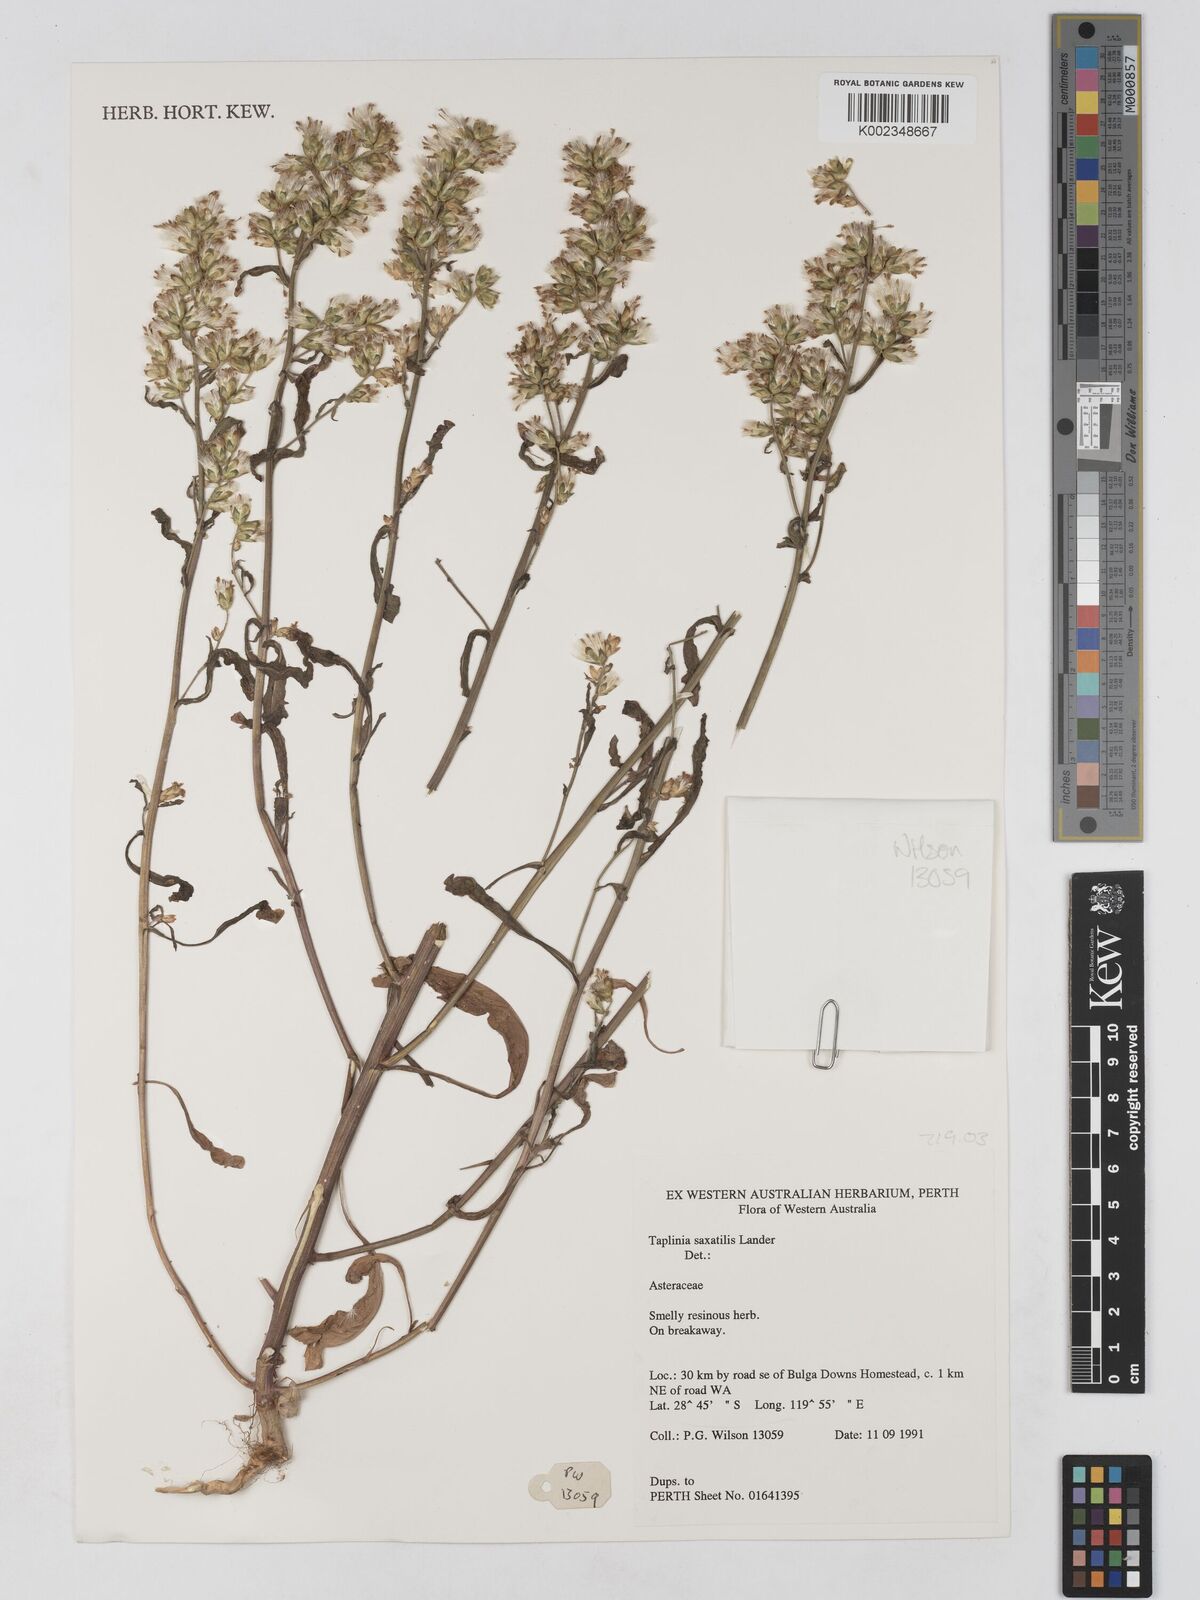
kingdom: Plantae
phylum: Tracheophyta
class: Magnoliopsida
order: Asterales
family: Asteraceae
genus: Taplinia
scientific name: Taplinia saxatilis
